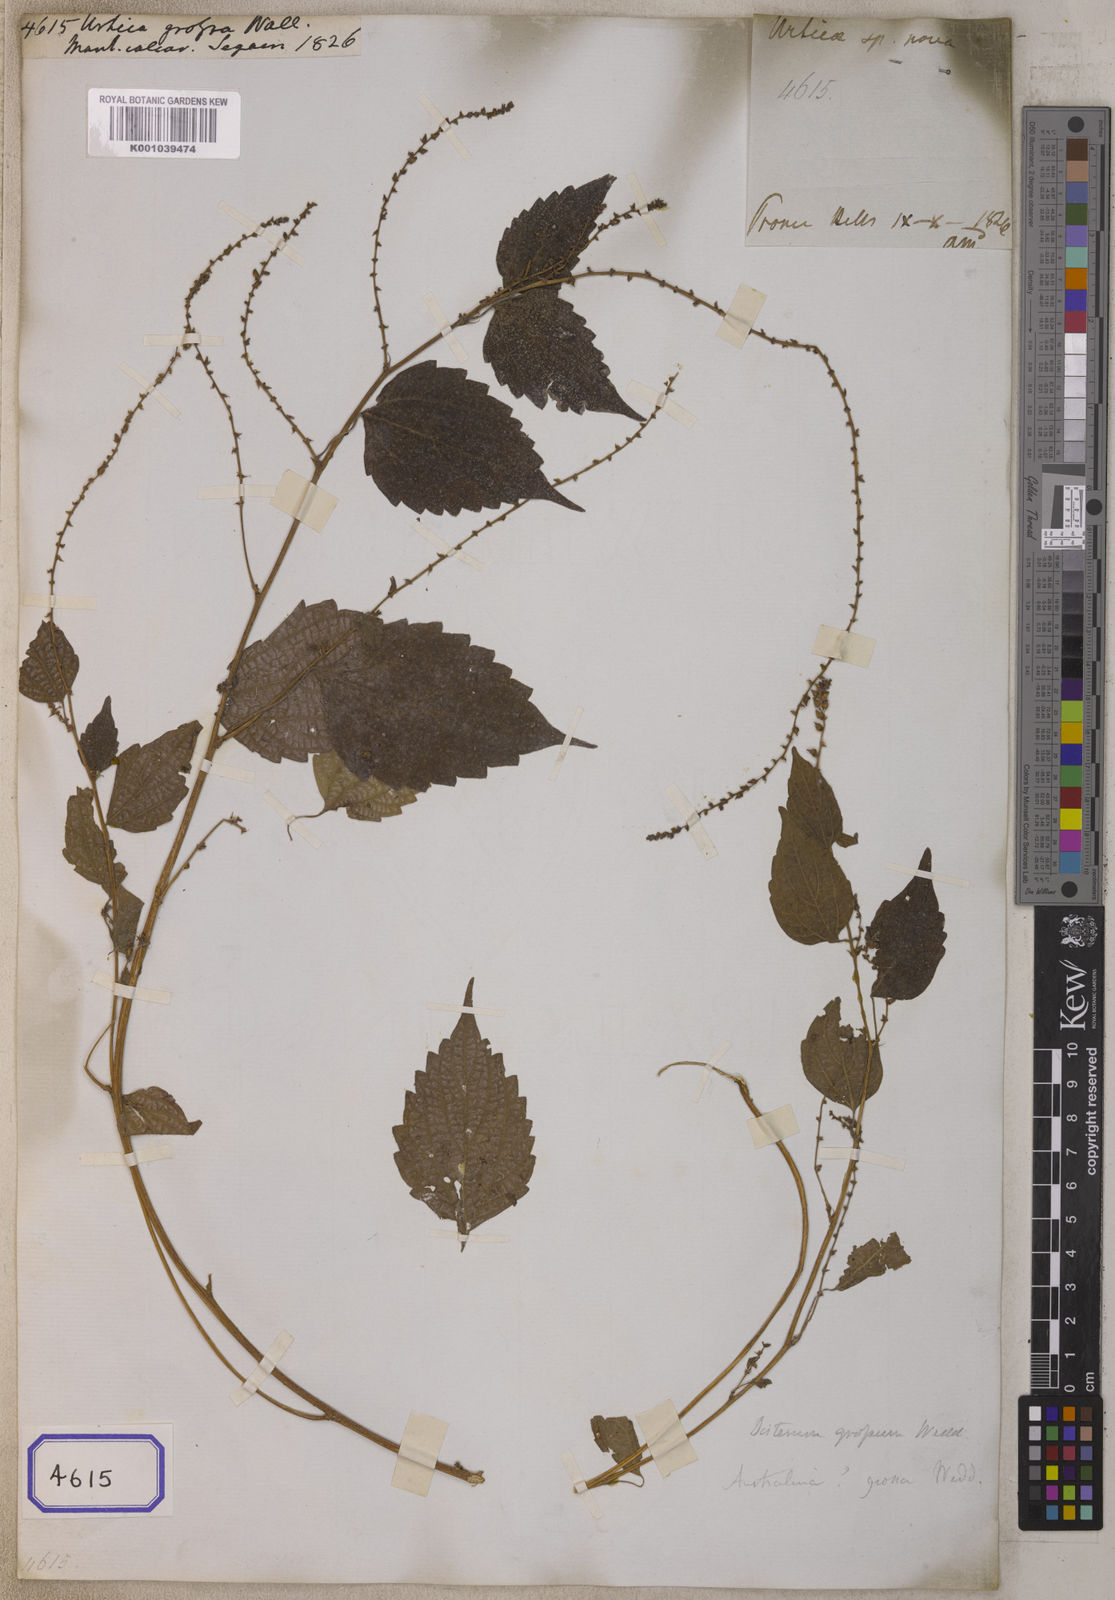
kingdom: Plantae
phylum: Tracheophyta
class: Magnoliopsida
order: Rosales
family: Urticaceae
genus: Neodistemon
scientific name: Neodistemon indicus
